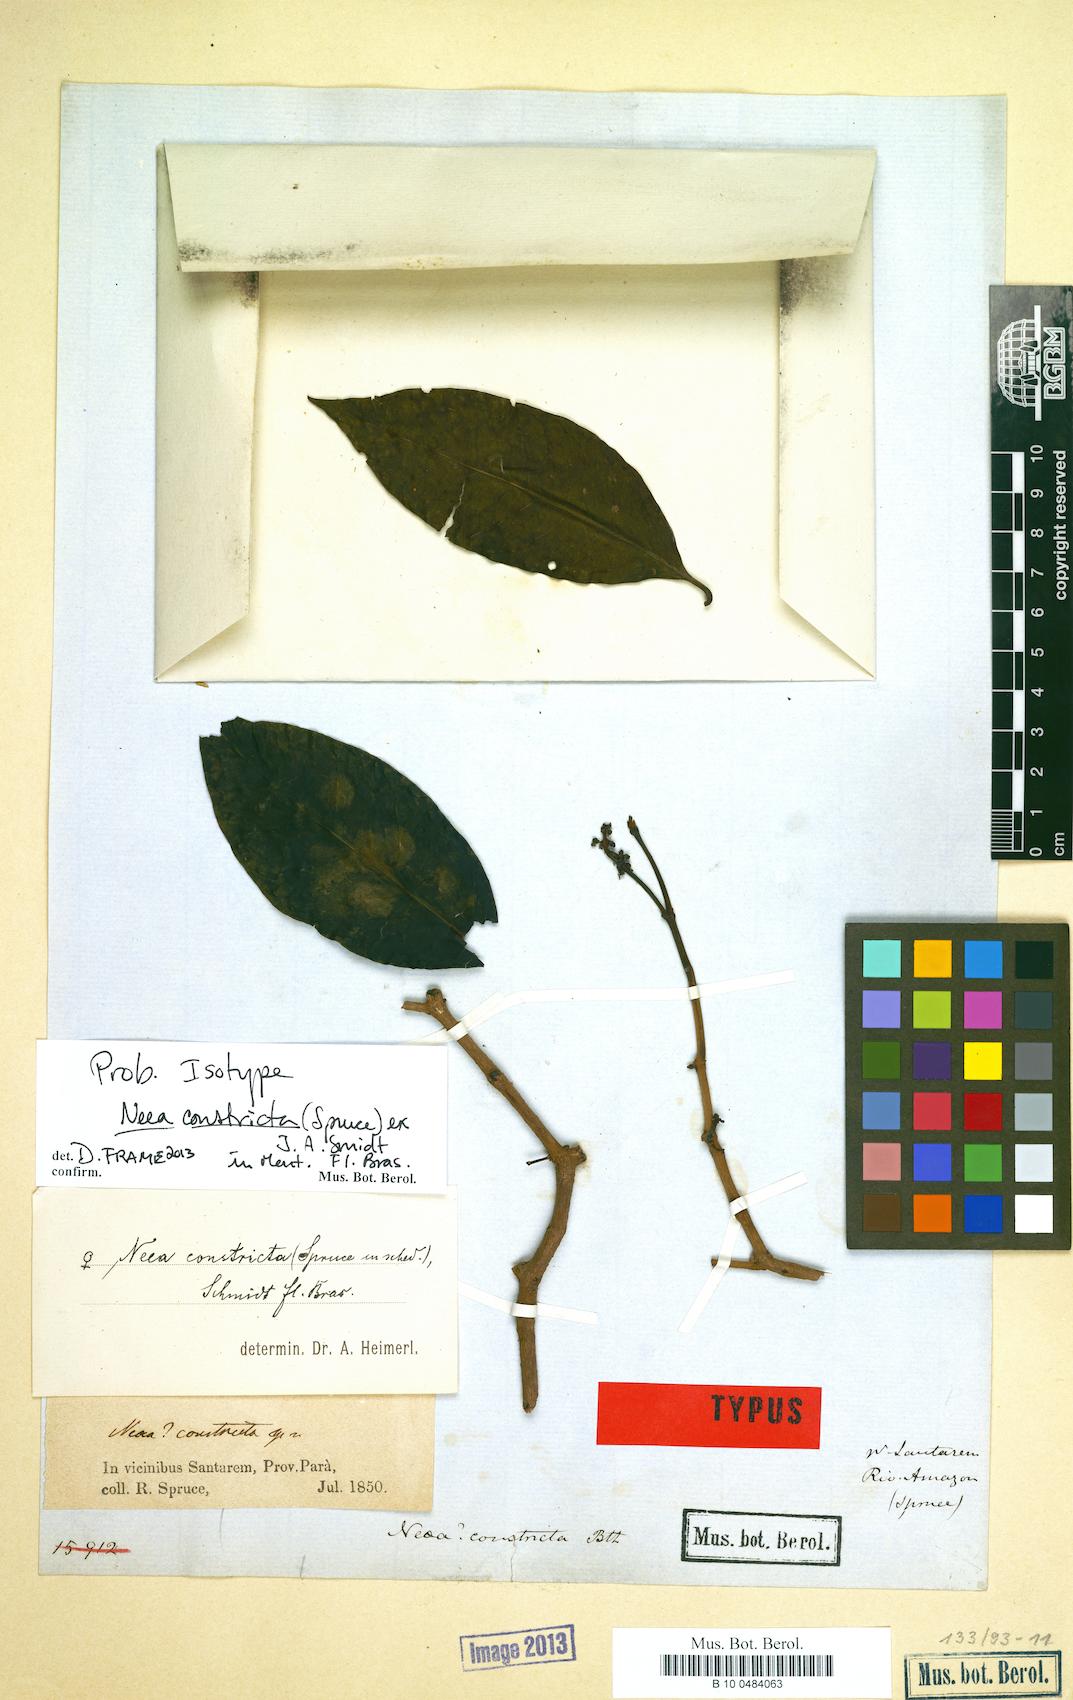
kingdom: Plantae
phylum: Tracheophyta
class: Magnoliopsida
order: Caryophyllales
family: Nyctaginaceae
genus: Neea
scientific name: Neea constricta
